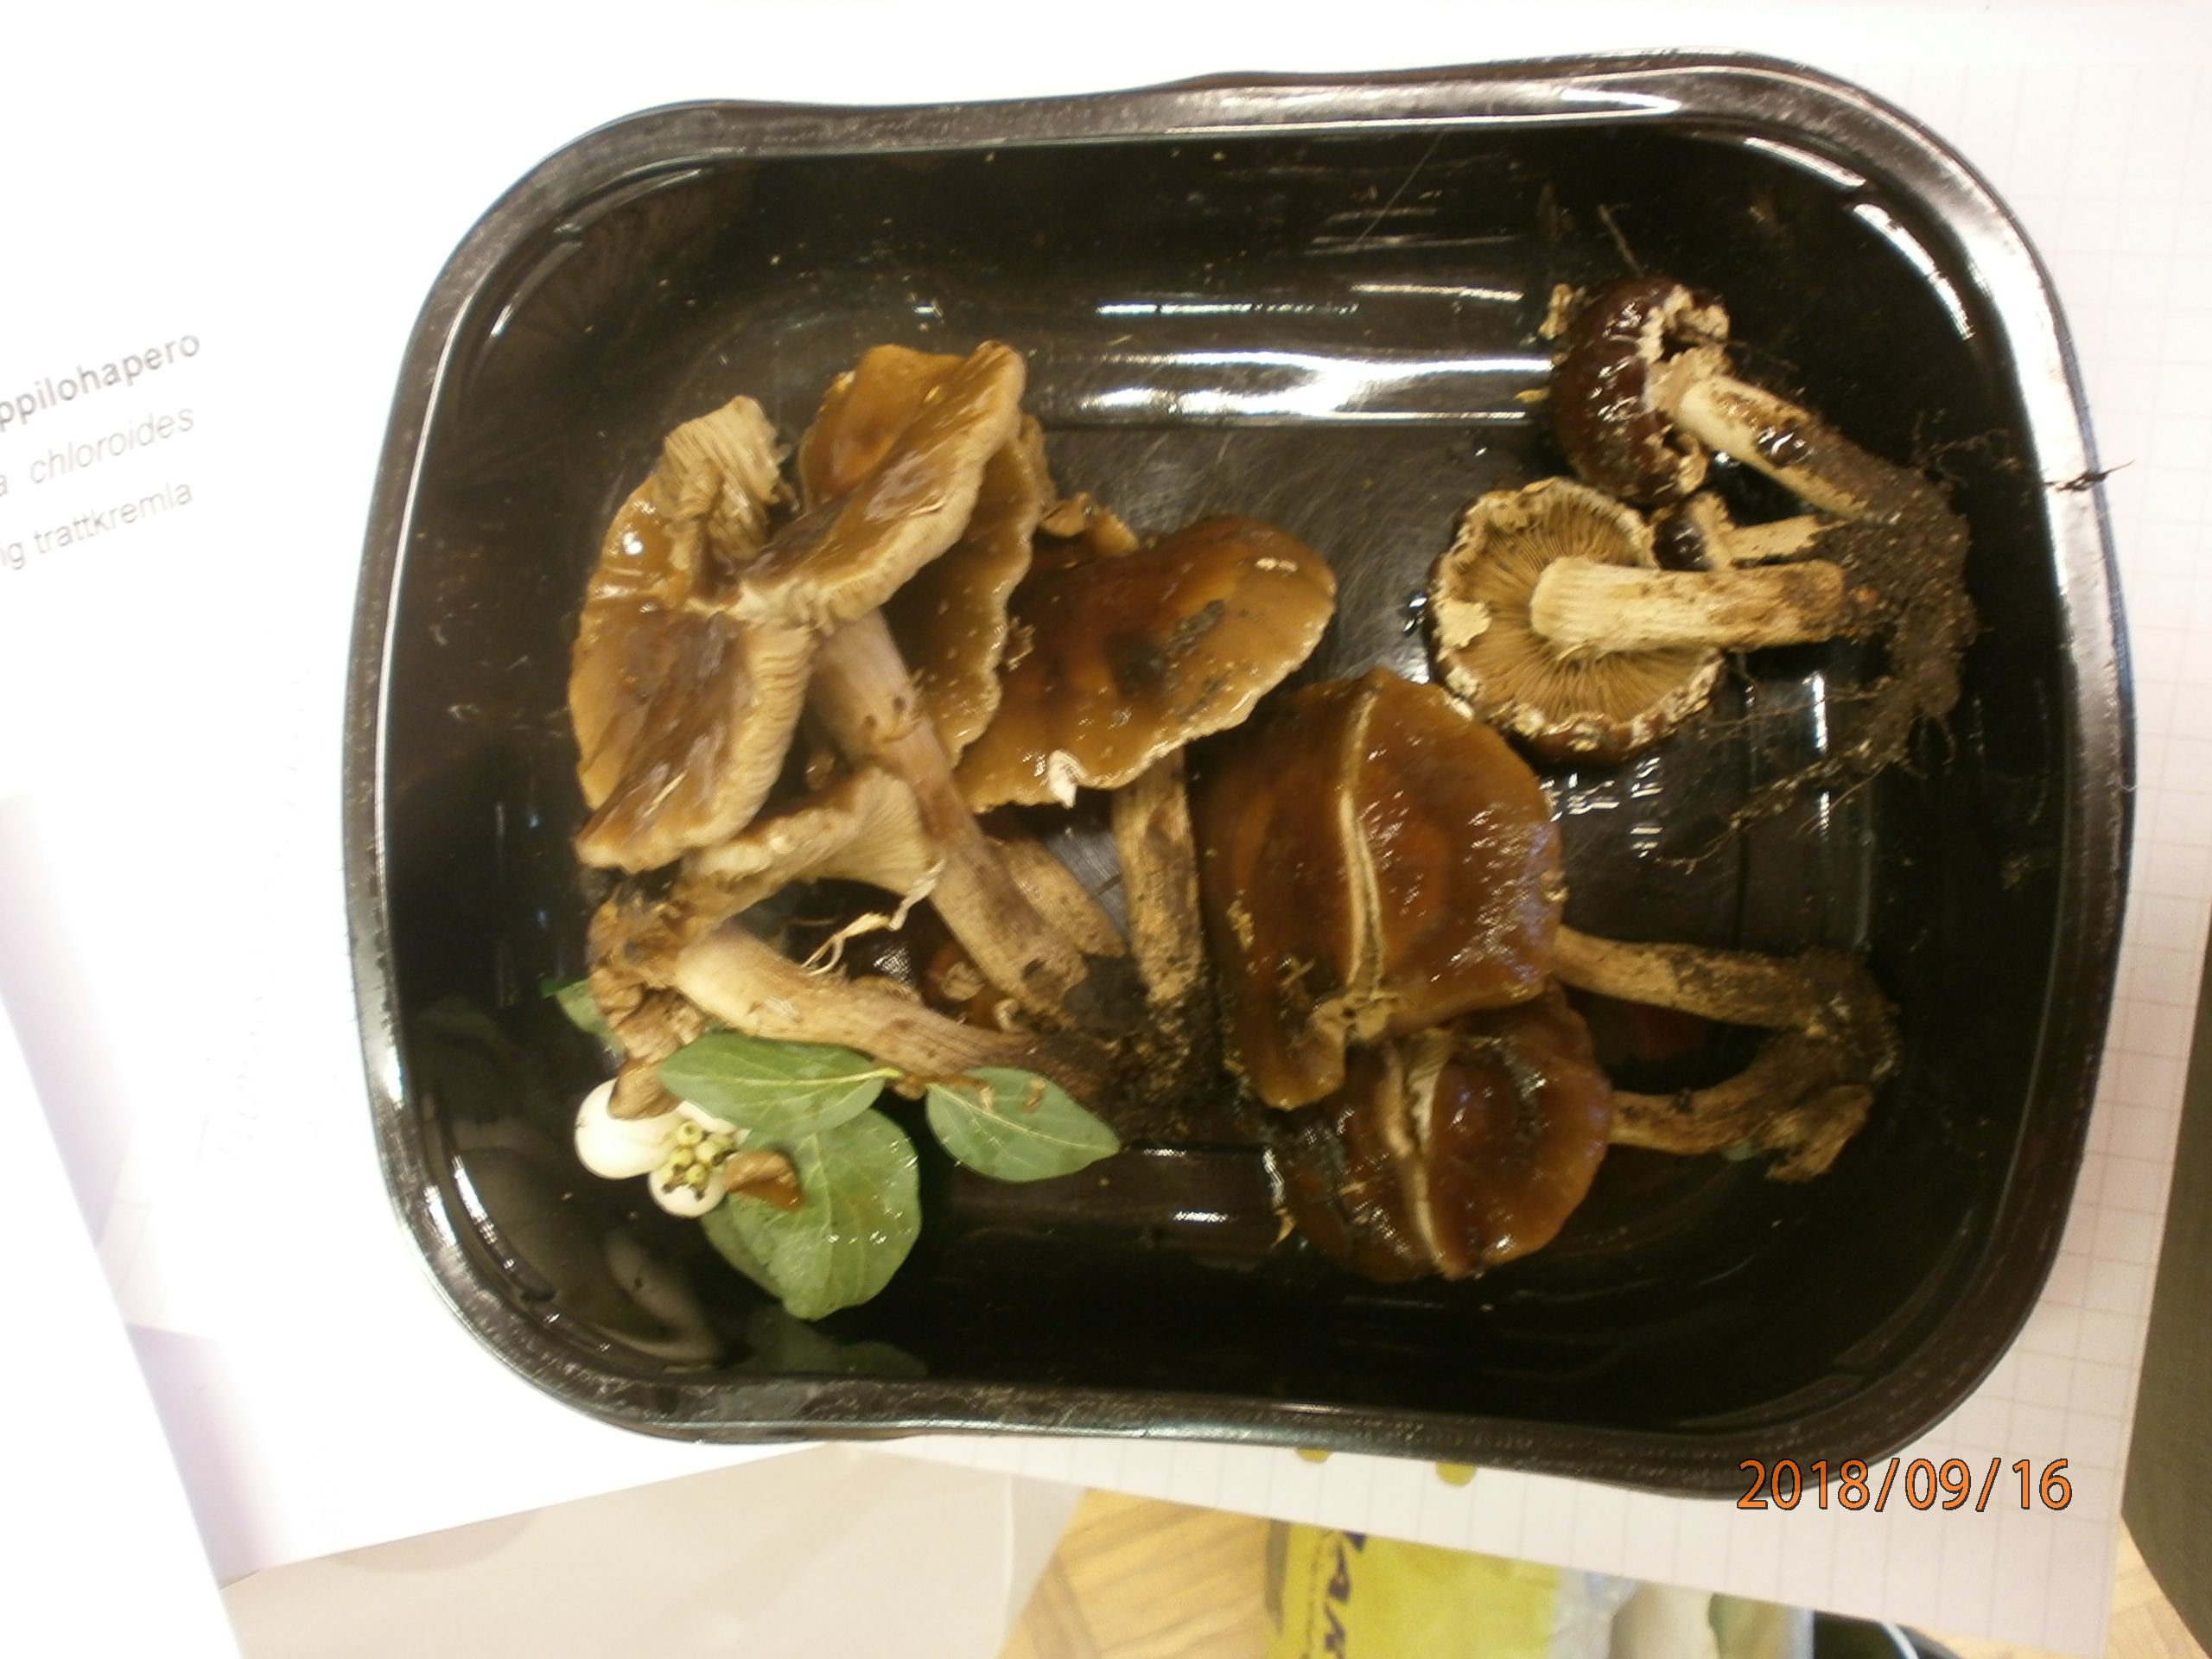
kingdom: Fungi
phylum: Basidiomycota
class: Agaricomycetes
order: Agaricales
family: Tubariaceae
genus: Cyclocybe
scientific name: Cyclocybe erebia
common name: Dark fieldcap
